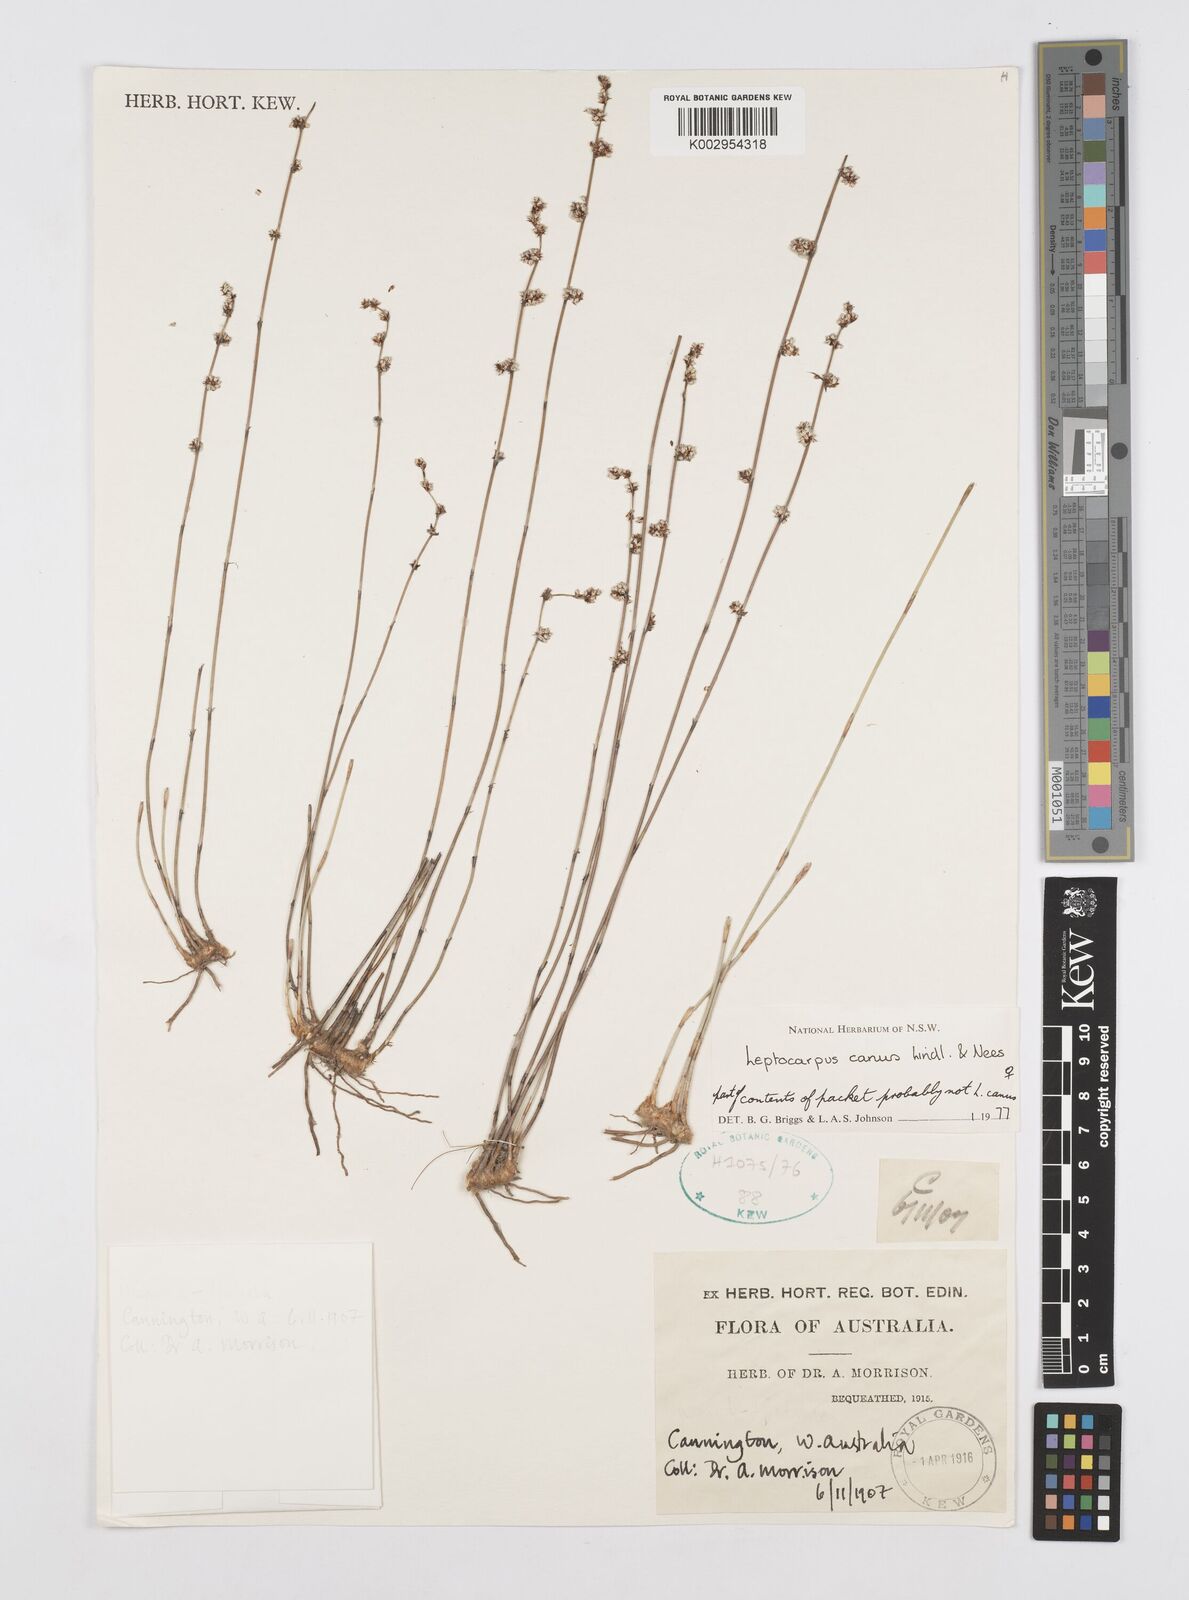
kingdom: Plantae
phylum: Tracheophyta
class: Liliopsida
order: Poales
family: Restionaceae
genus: Leptocarpus
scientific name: Leptocarpus canus
